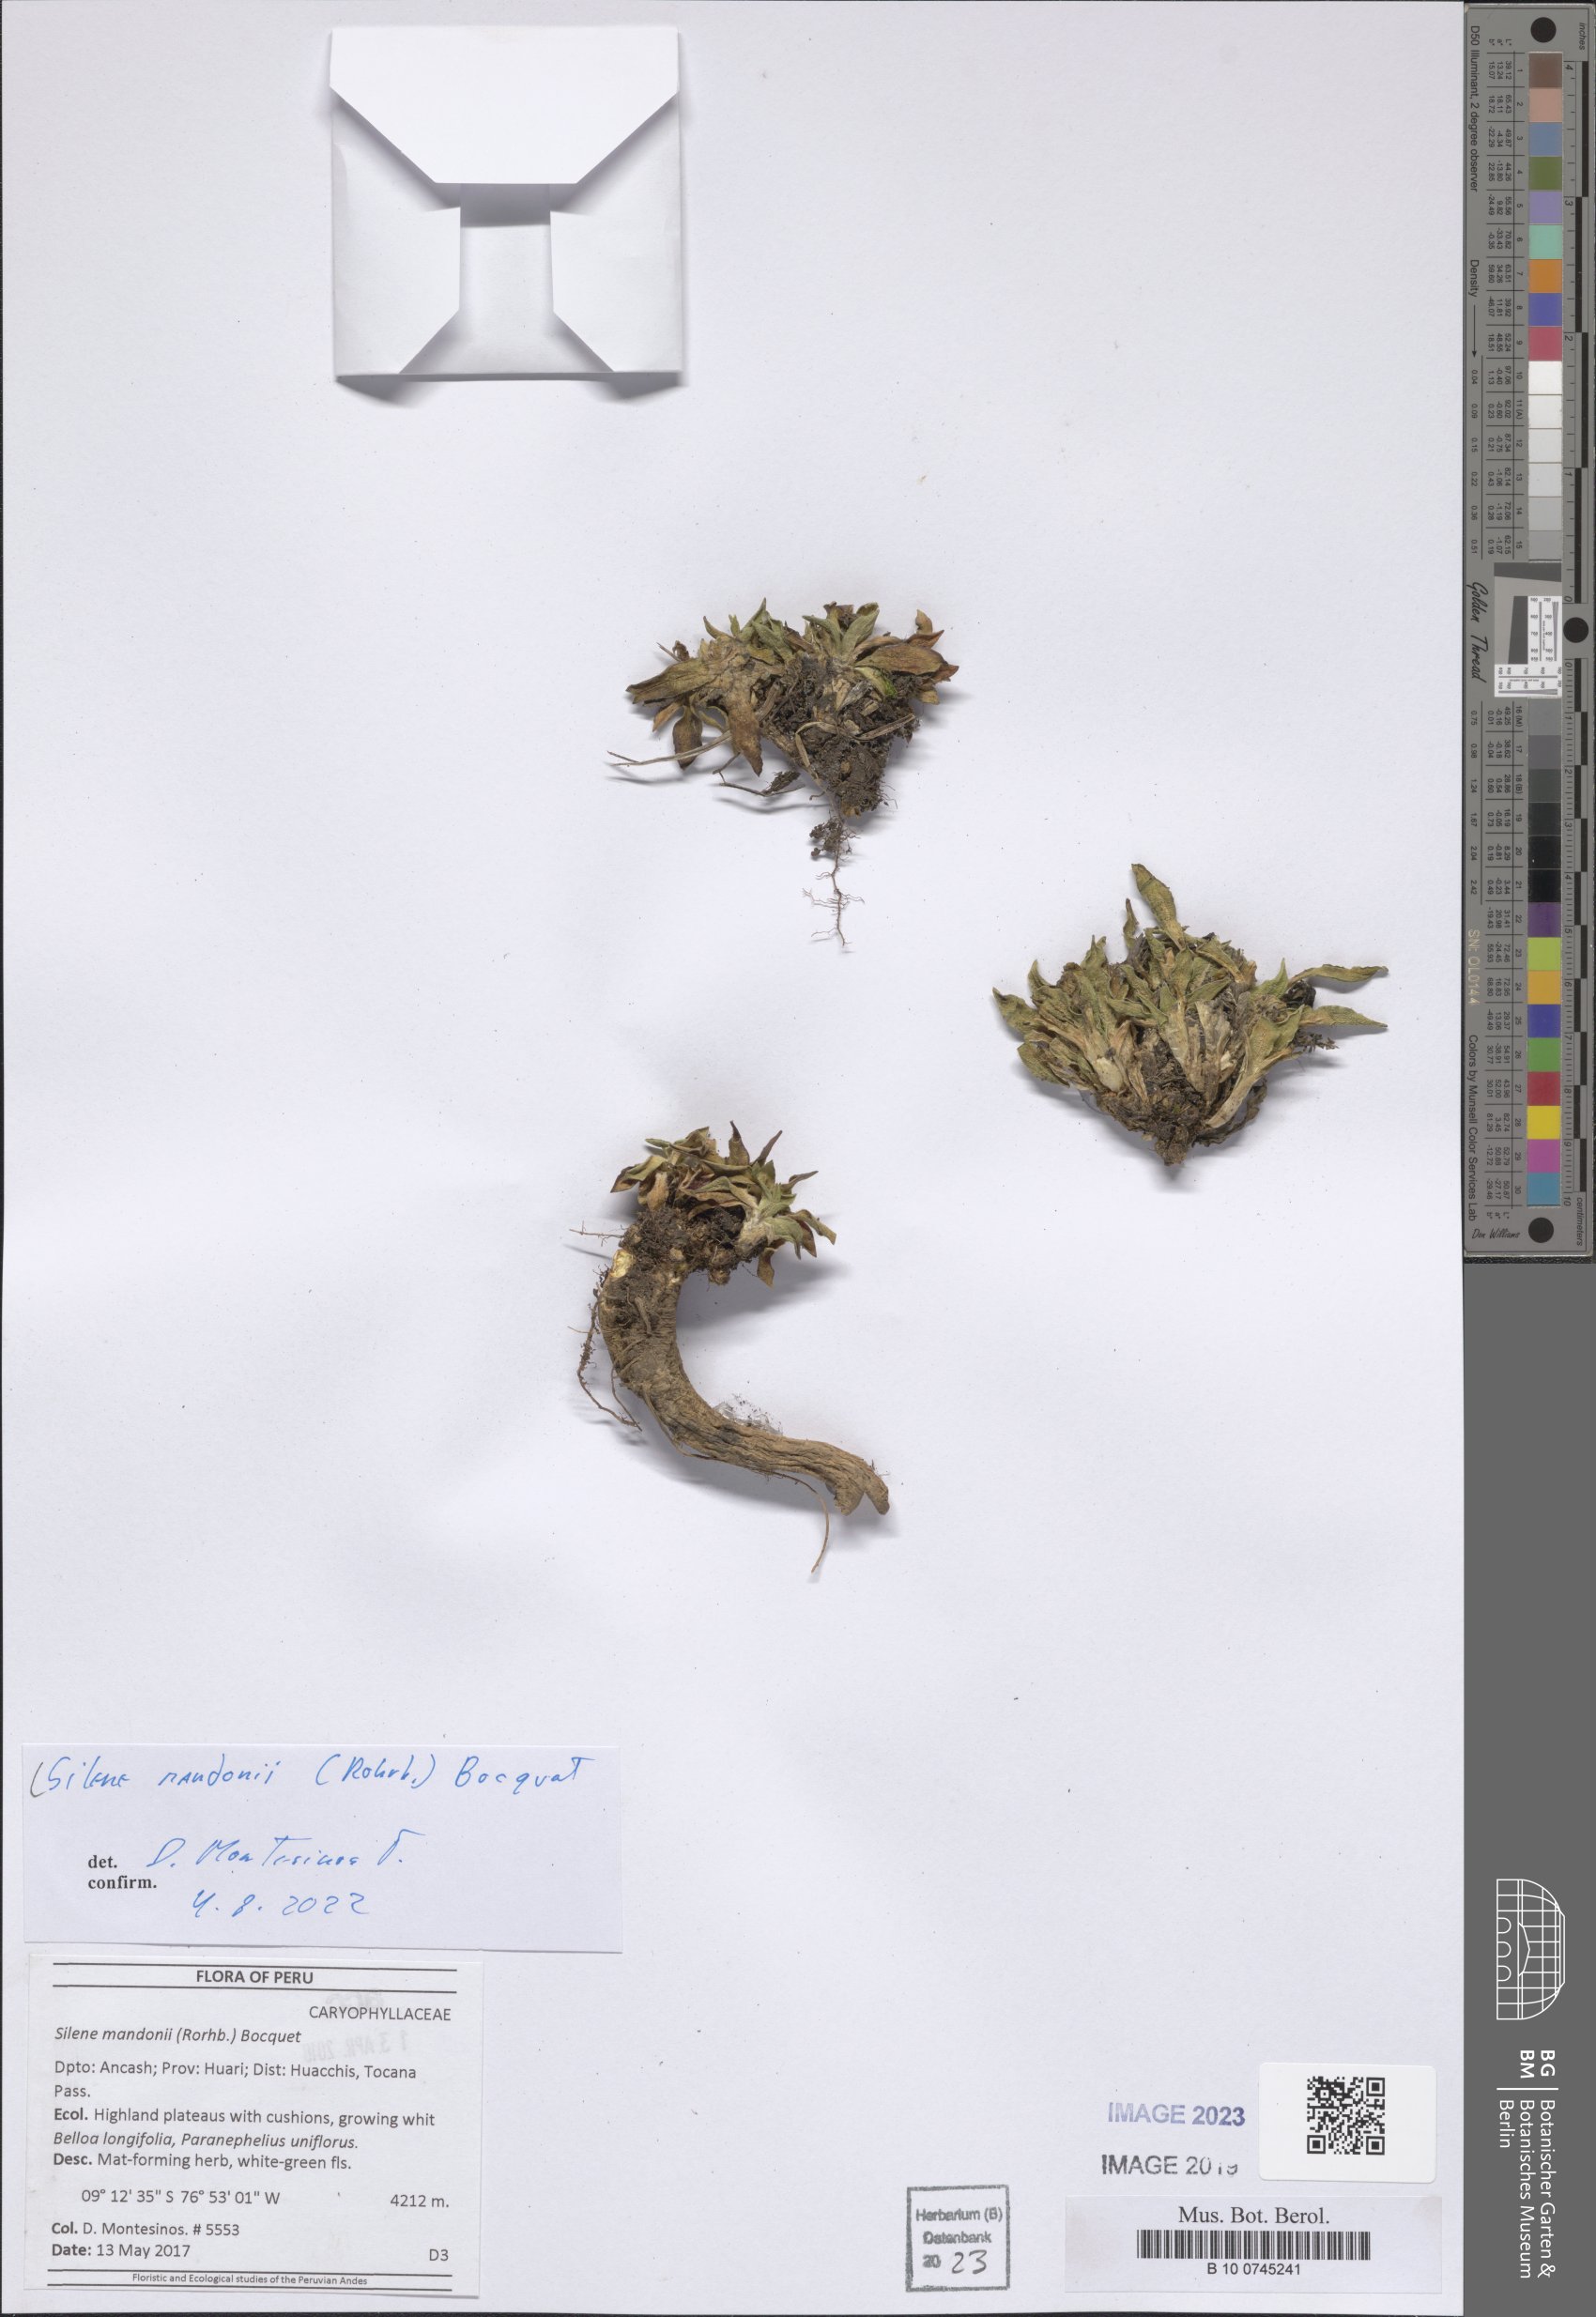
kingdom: Plantae
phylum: Tracheophyta
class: Magnoliopsida
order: Caryophyllales
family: Caryophyllaceae
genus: Silene
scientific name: Silene mandonii
